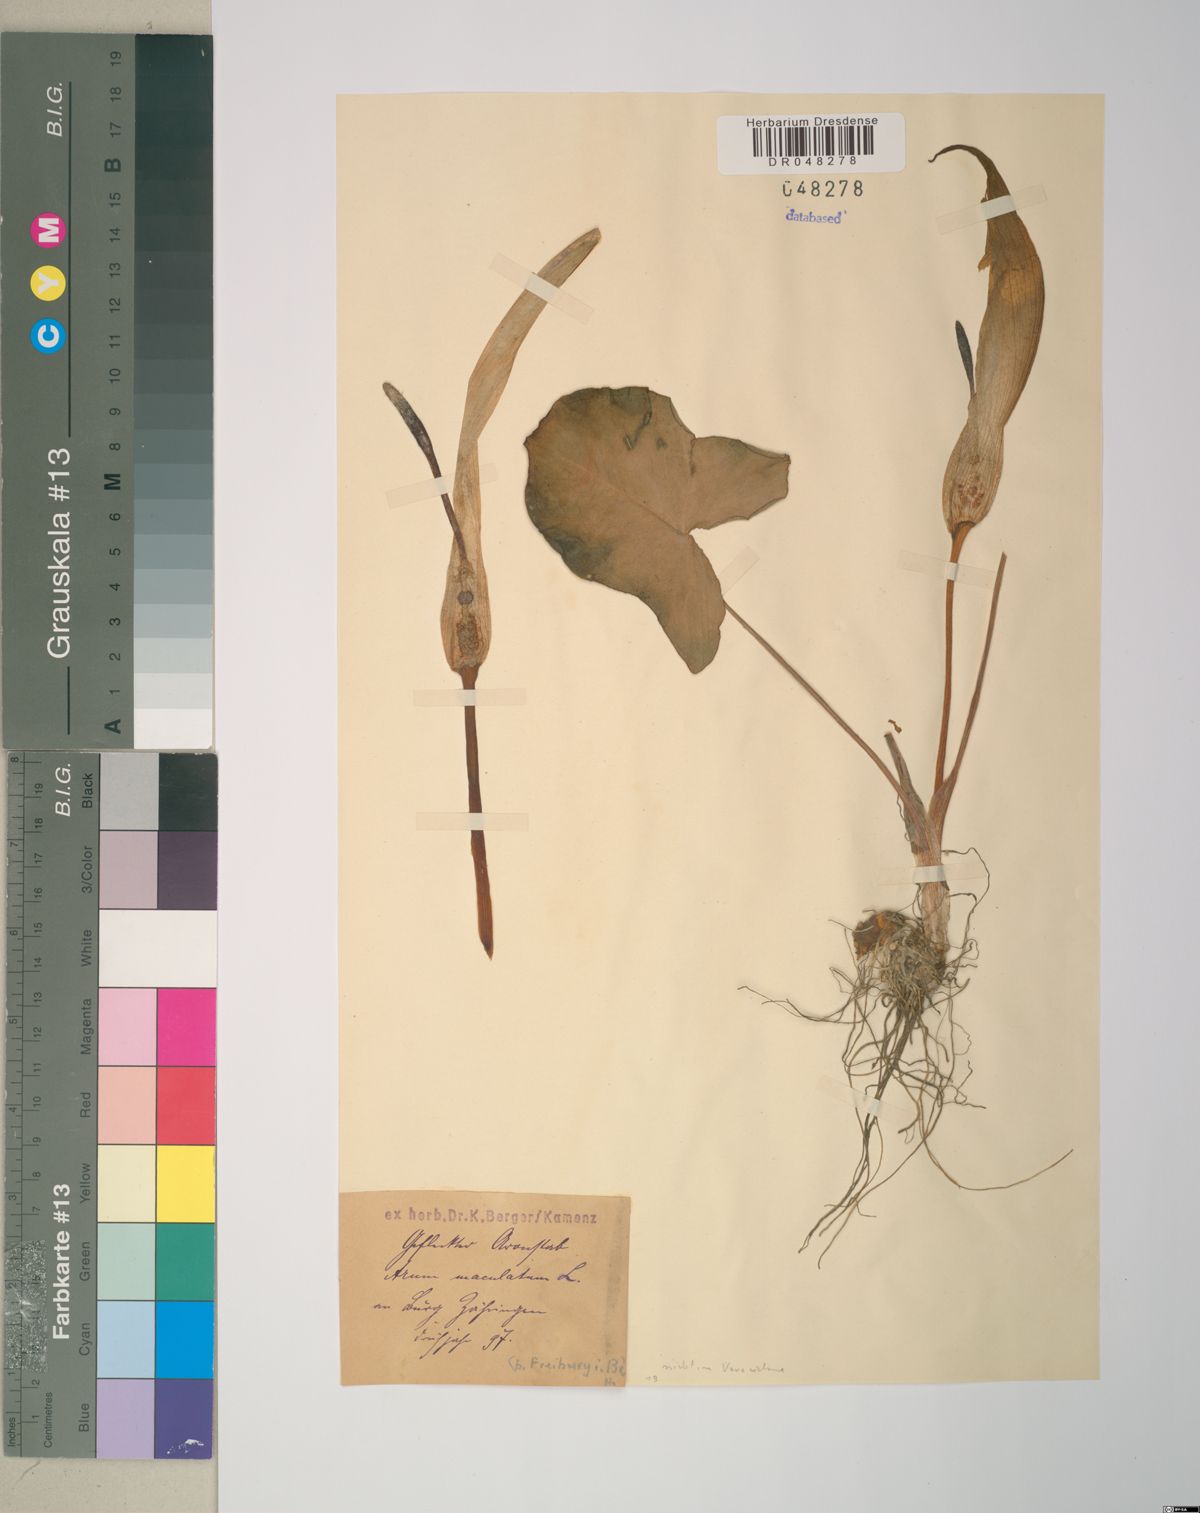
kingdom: Plantae
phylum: Tracheophyta
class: Liliopsida
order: Alismatales
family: Araceae
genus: Arum
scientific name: Arum maculatum
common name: Lords-and-ladies
